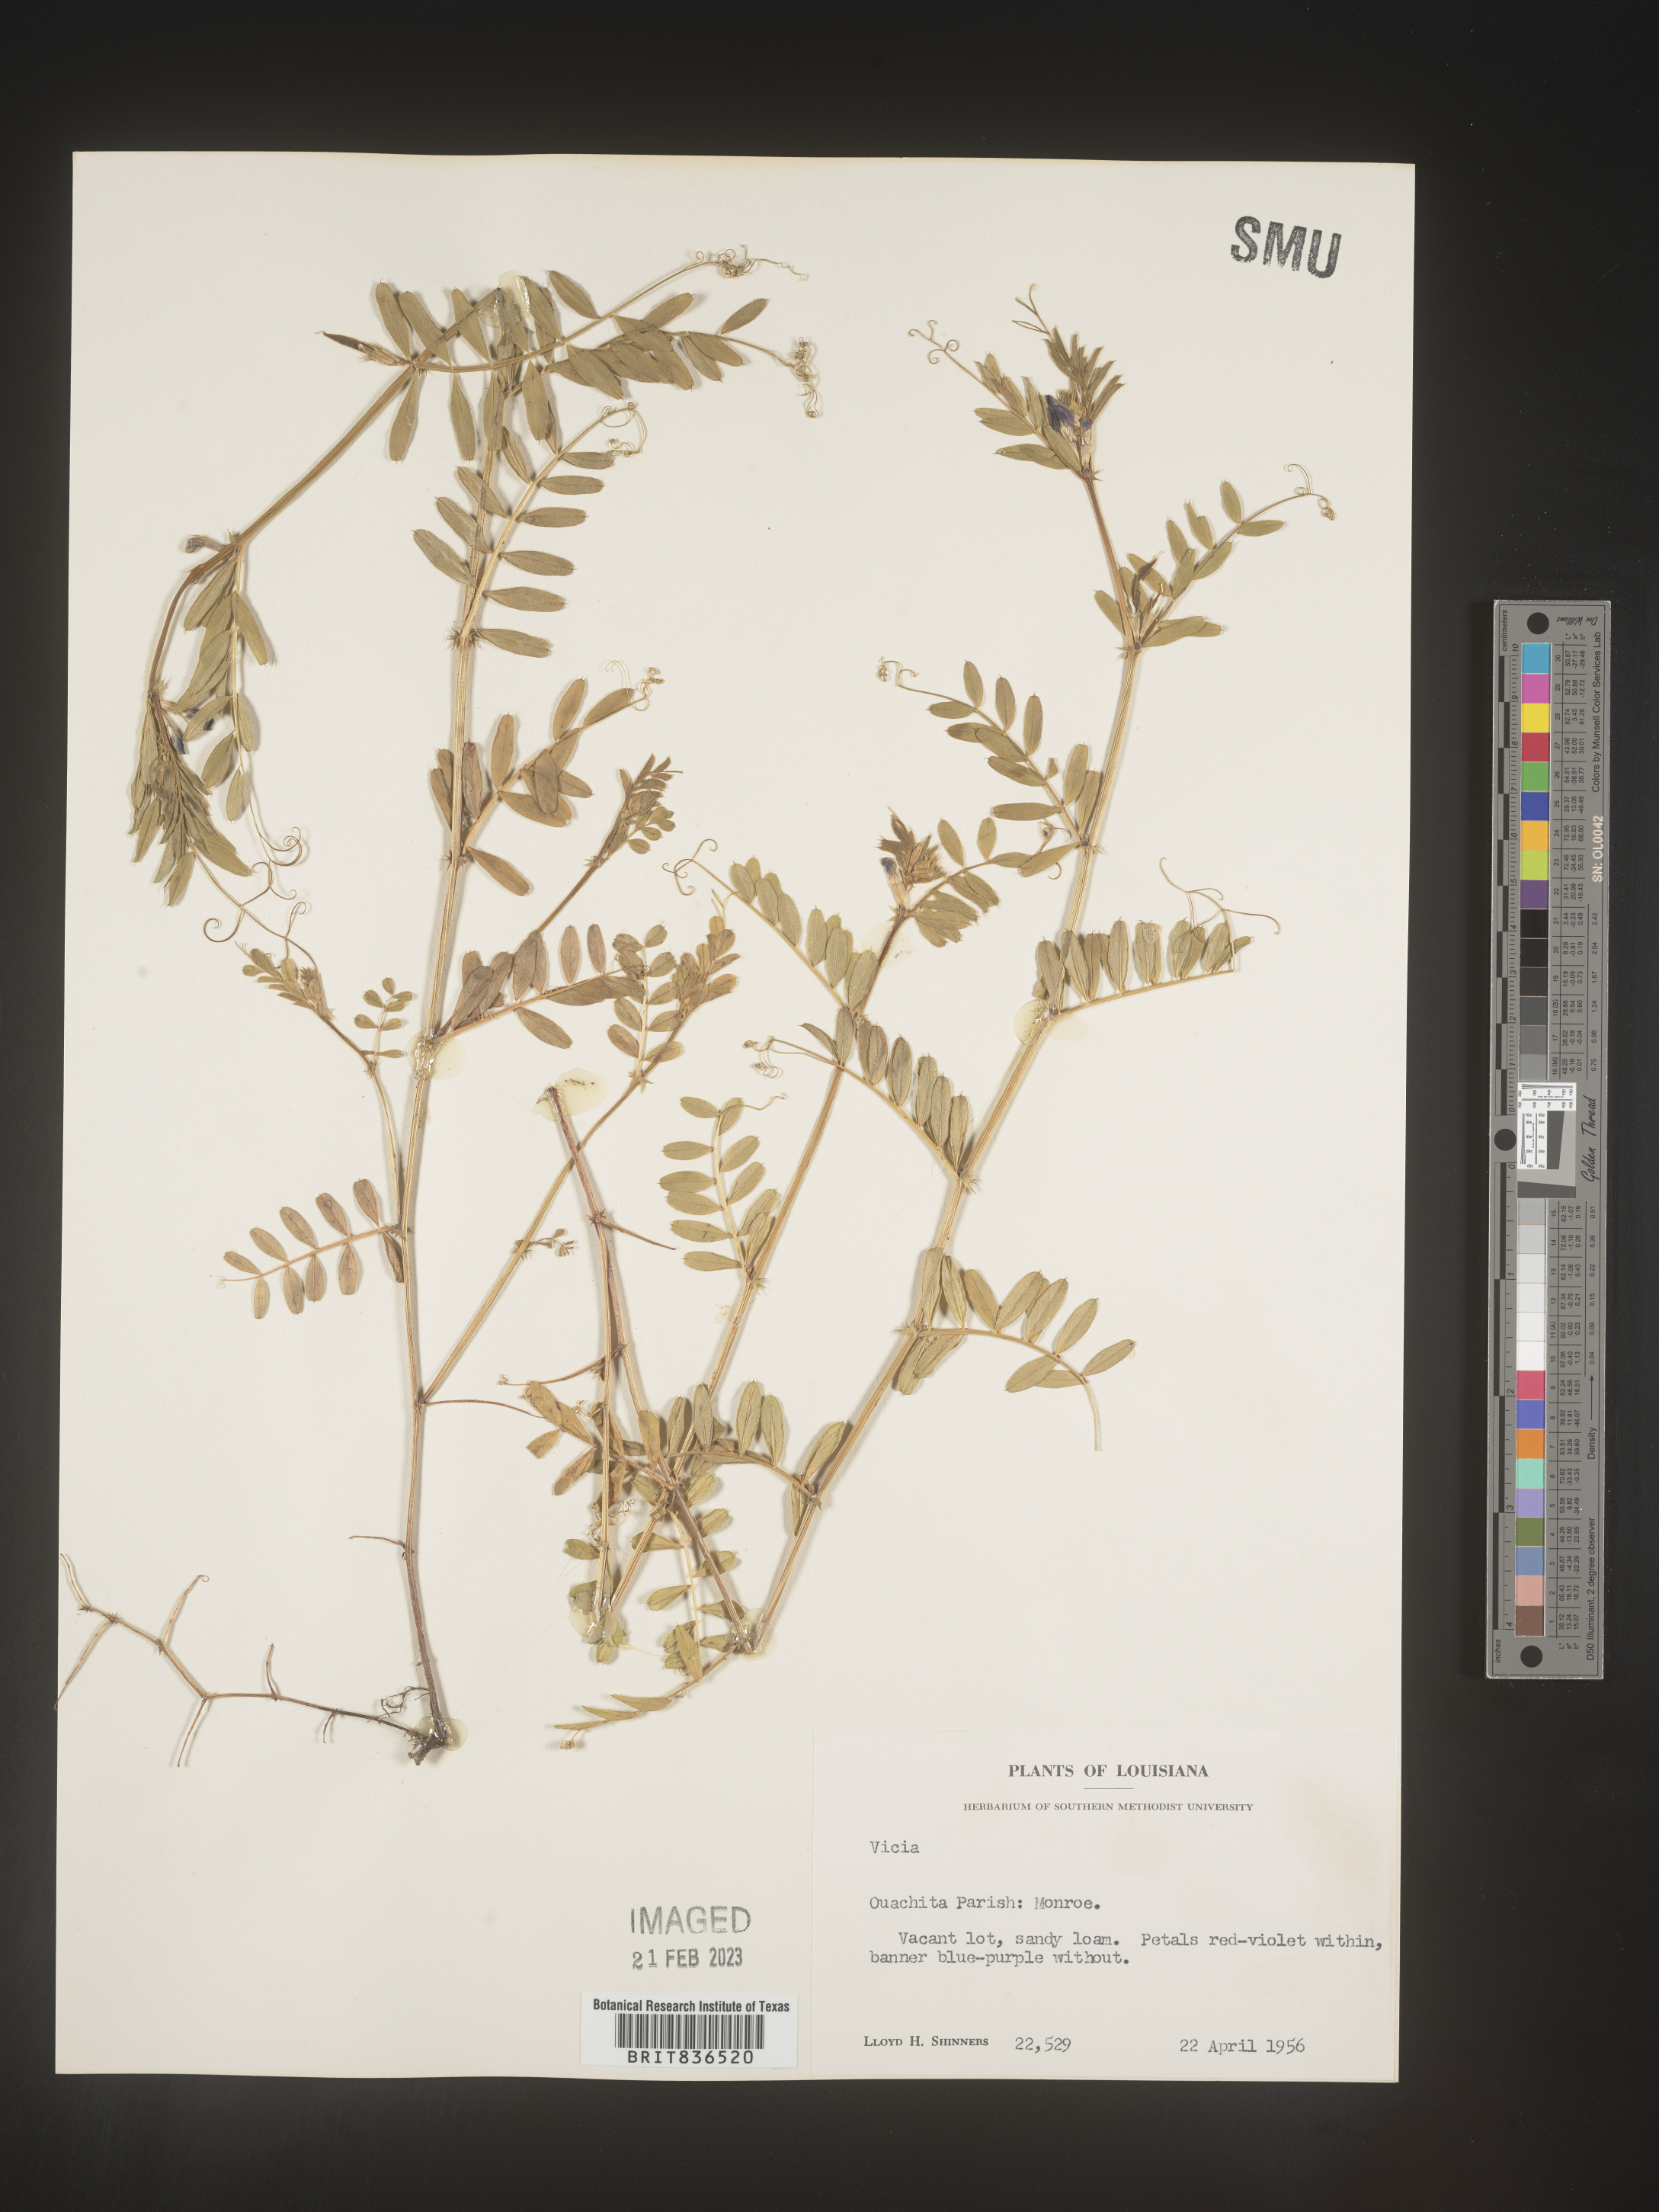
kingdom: Plantae
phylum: Tracheophyta
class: Magnoliopsida
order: Fabales
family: Fabaceae
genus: Vicia
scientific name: Vicia
